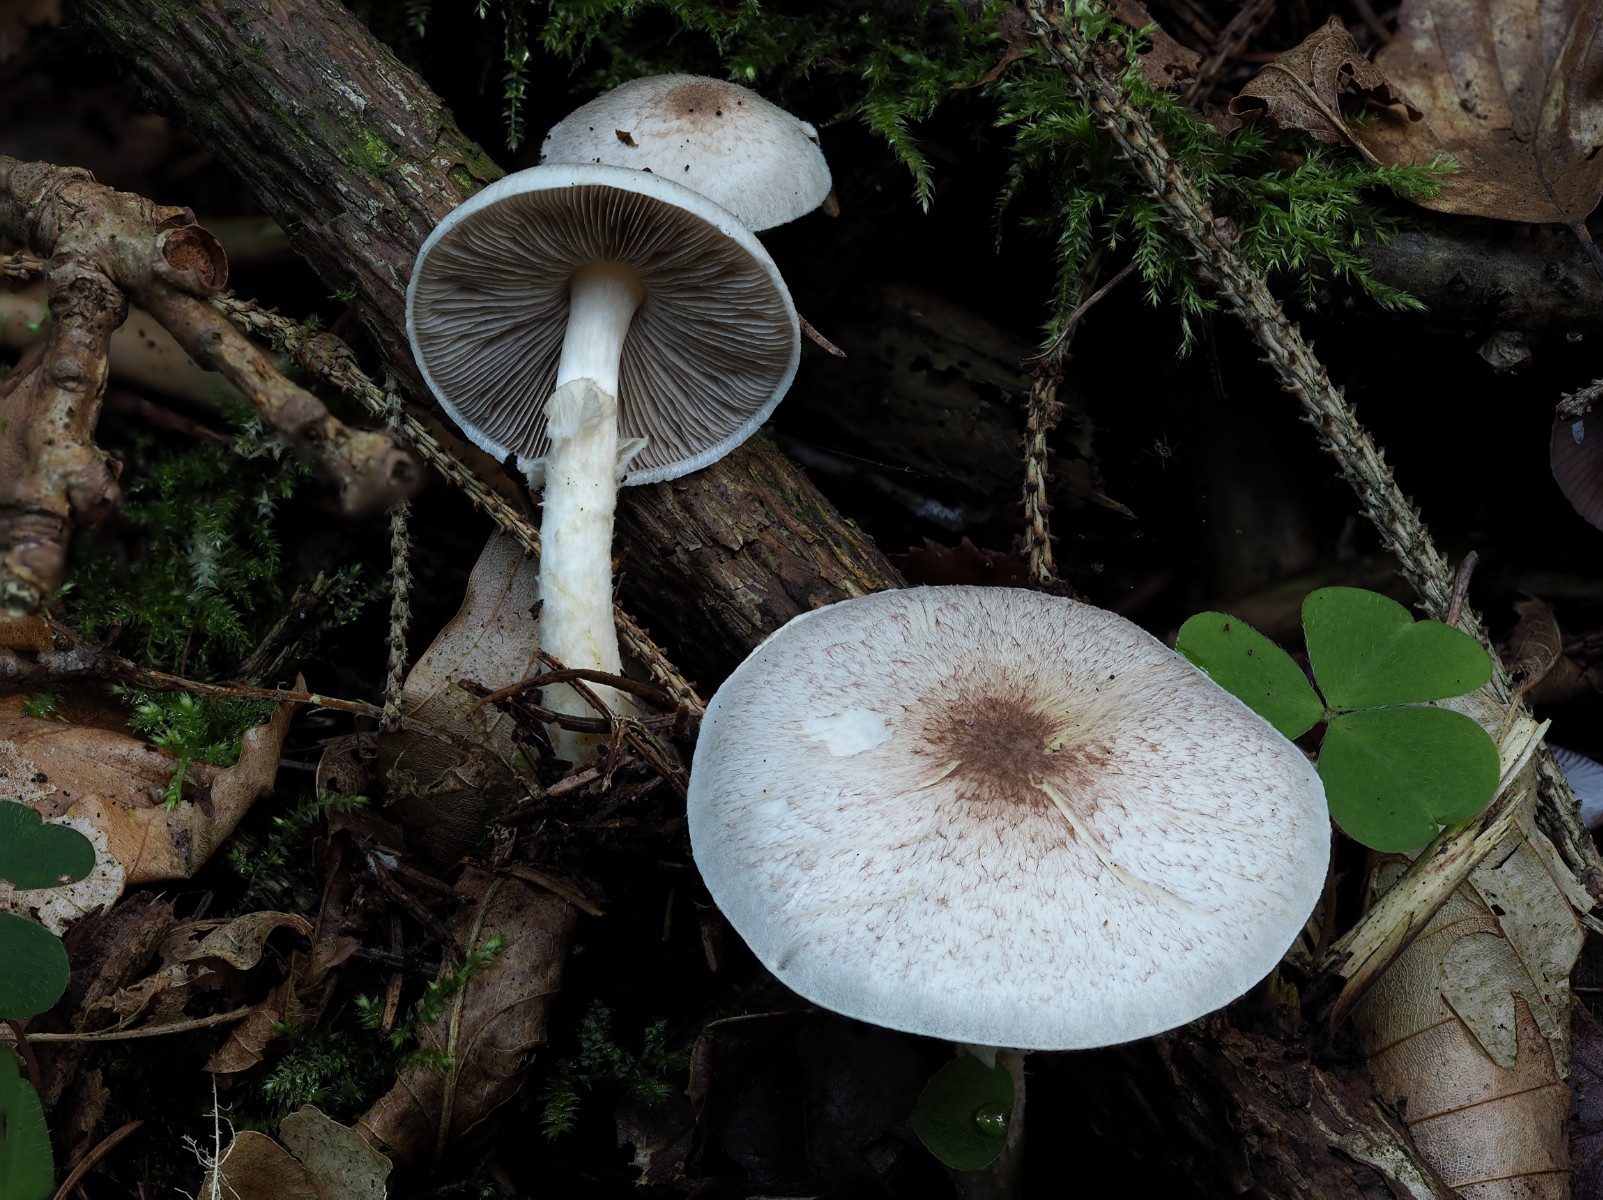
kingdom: Fungi
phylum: Basidiomycota
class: Agaricomycetes
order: Agaricales
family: Agaricaceae
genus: Agaricus
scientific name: Agaricus
